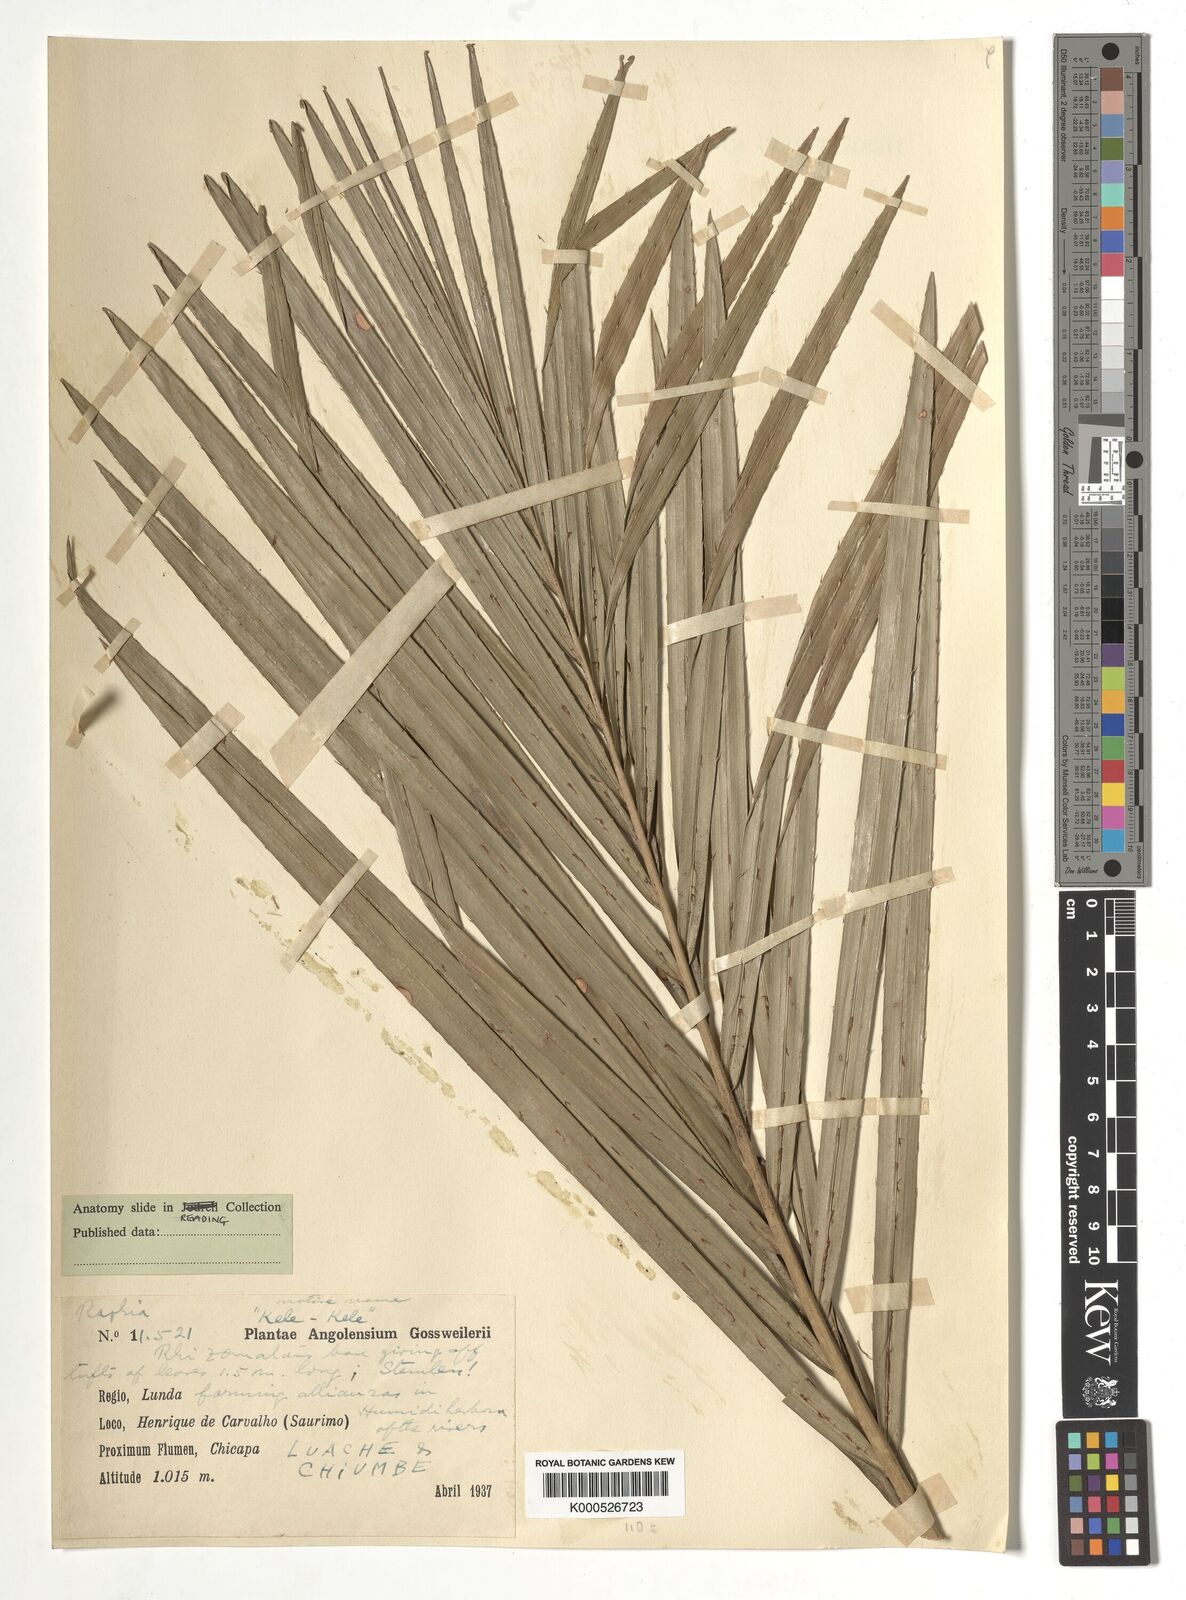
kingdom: Plantae
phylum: Tracheophyta
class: Liliopsida
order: Arecales
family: Arecaceae
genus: Raphia
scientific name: Raphia
